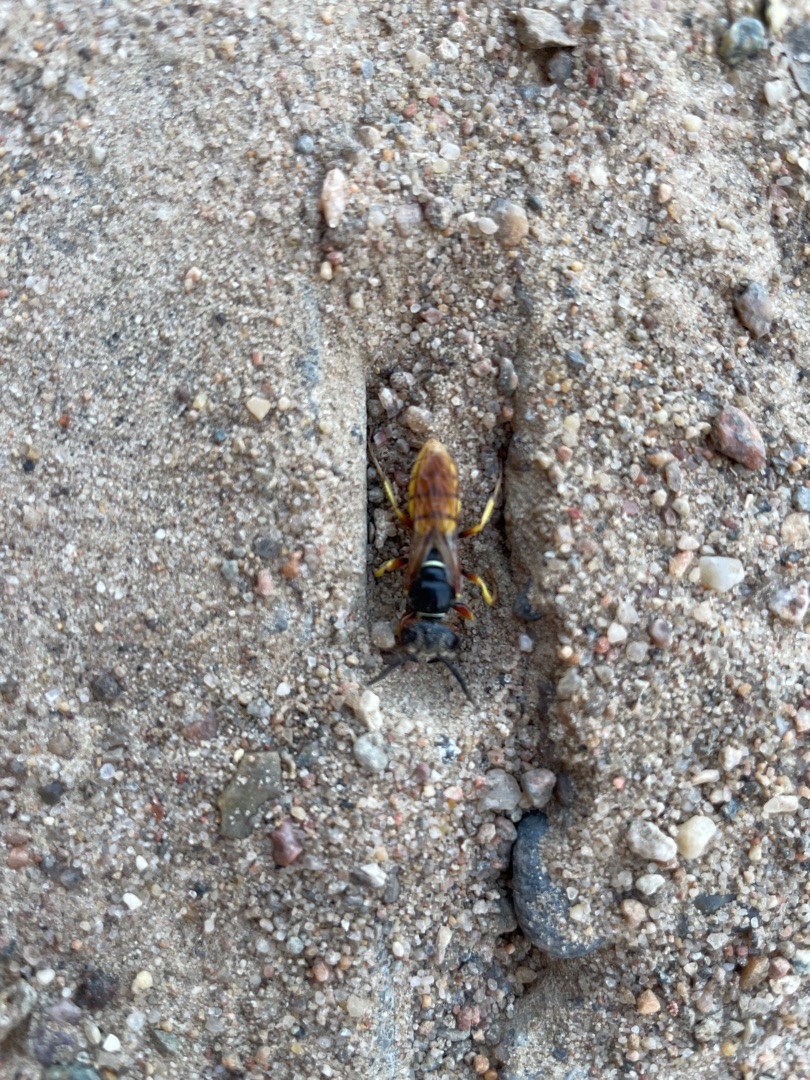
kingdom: Animalia
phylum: Arthropoda
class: Insecta
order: Hymenoptera
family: Crabronidae
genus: Philanthus
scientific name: Philanthus triangulum
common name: Biulv
